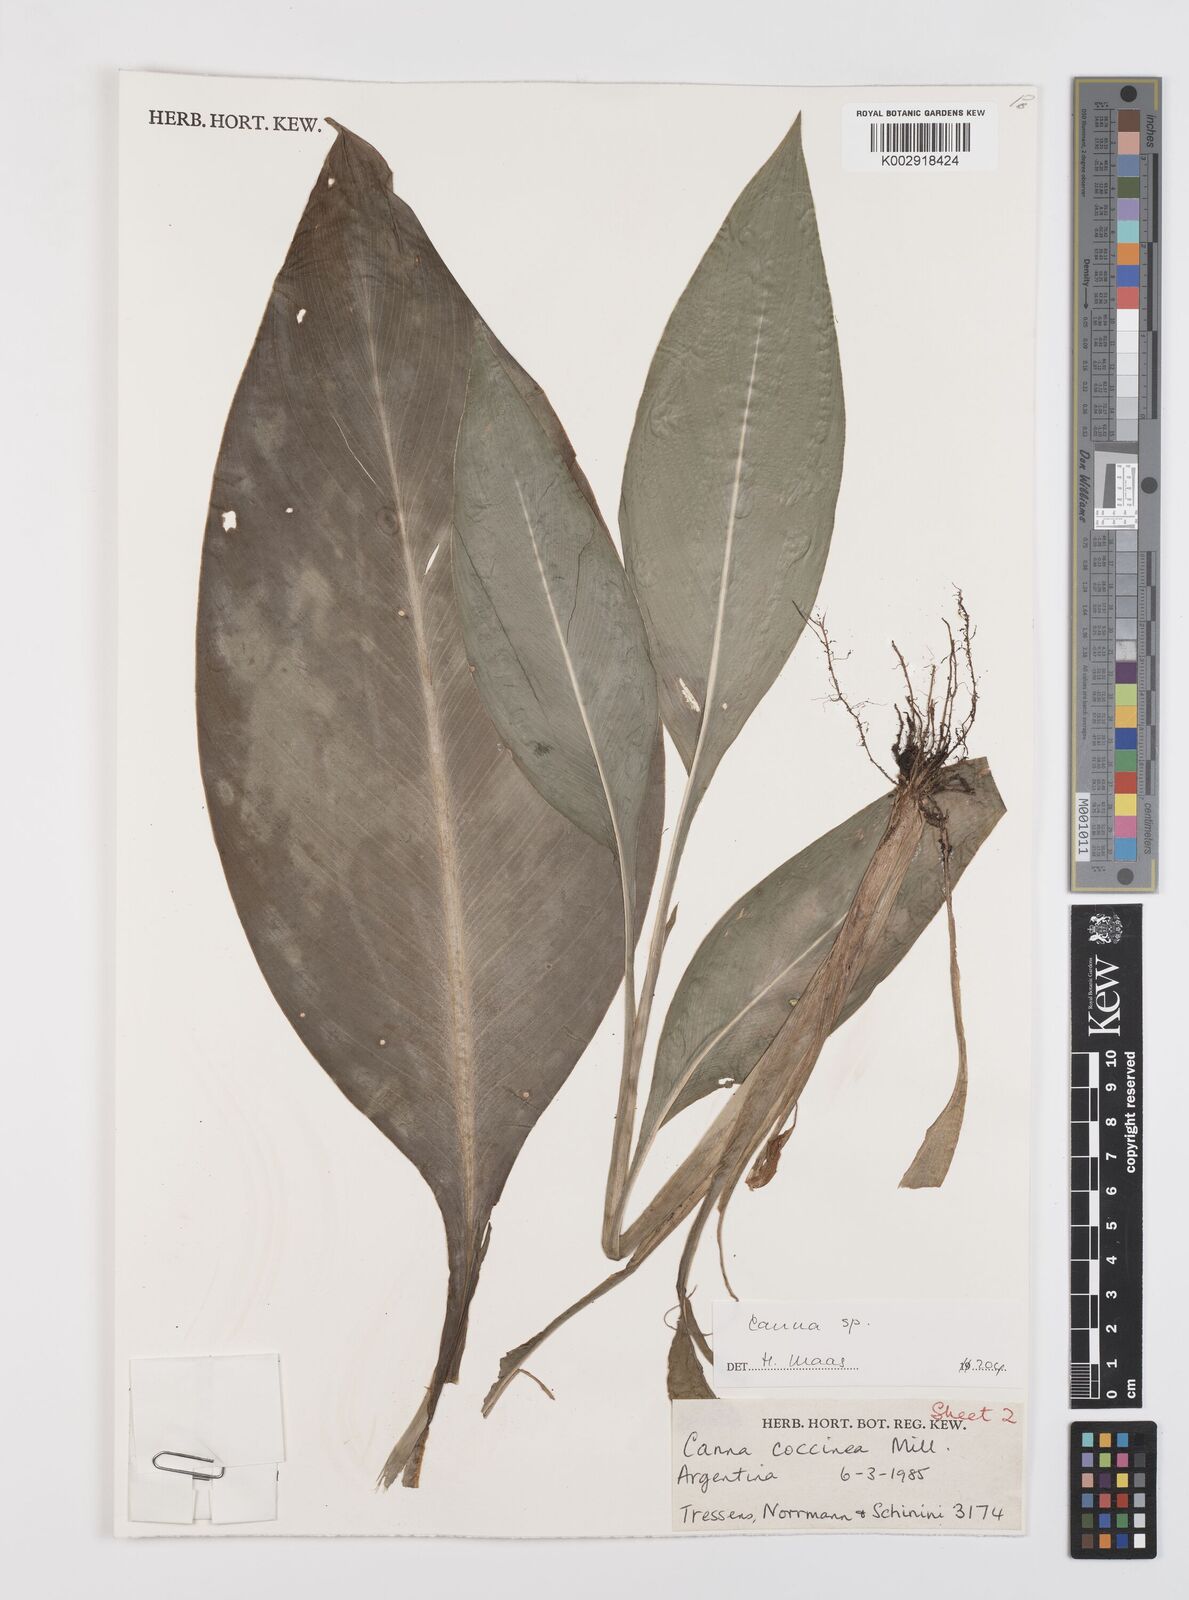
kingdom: Plantae
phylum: Tracheophyta
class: Liliopsida
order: Zingiberales
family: Cannaceae
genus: Canna
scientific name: Canna paniculata
